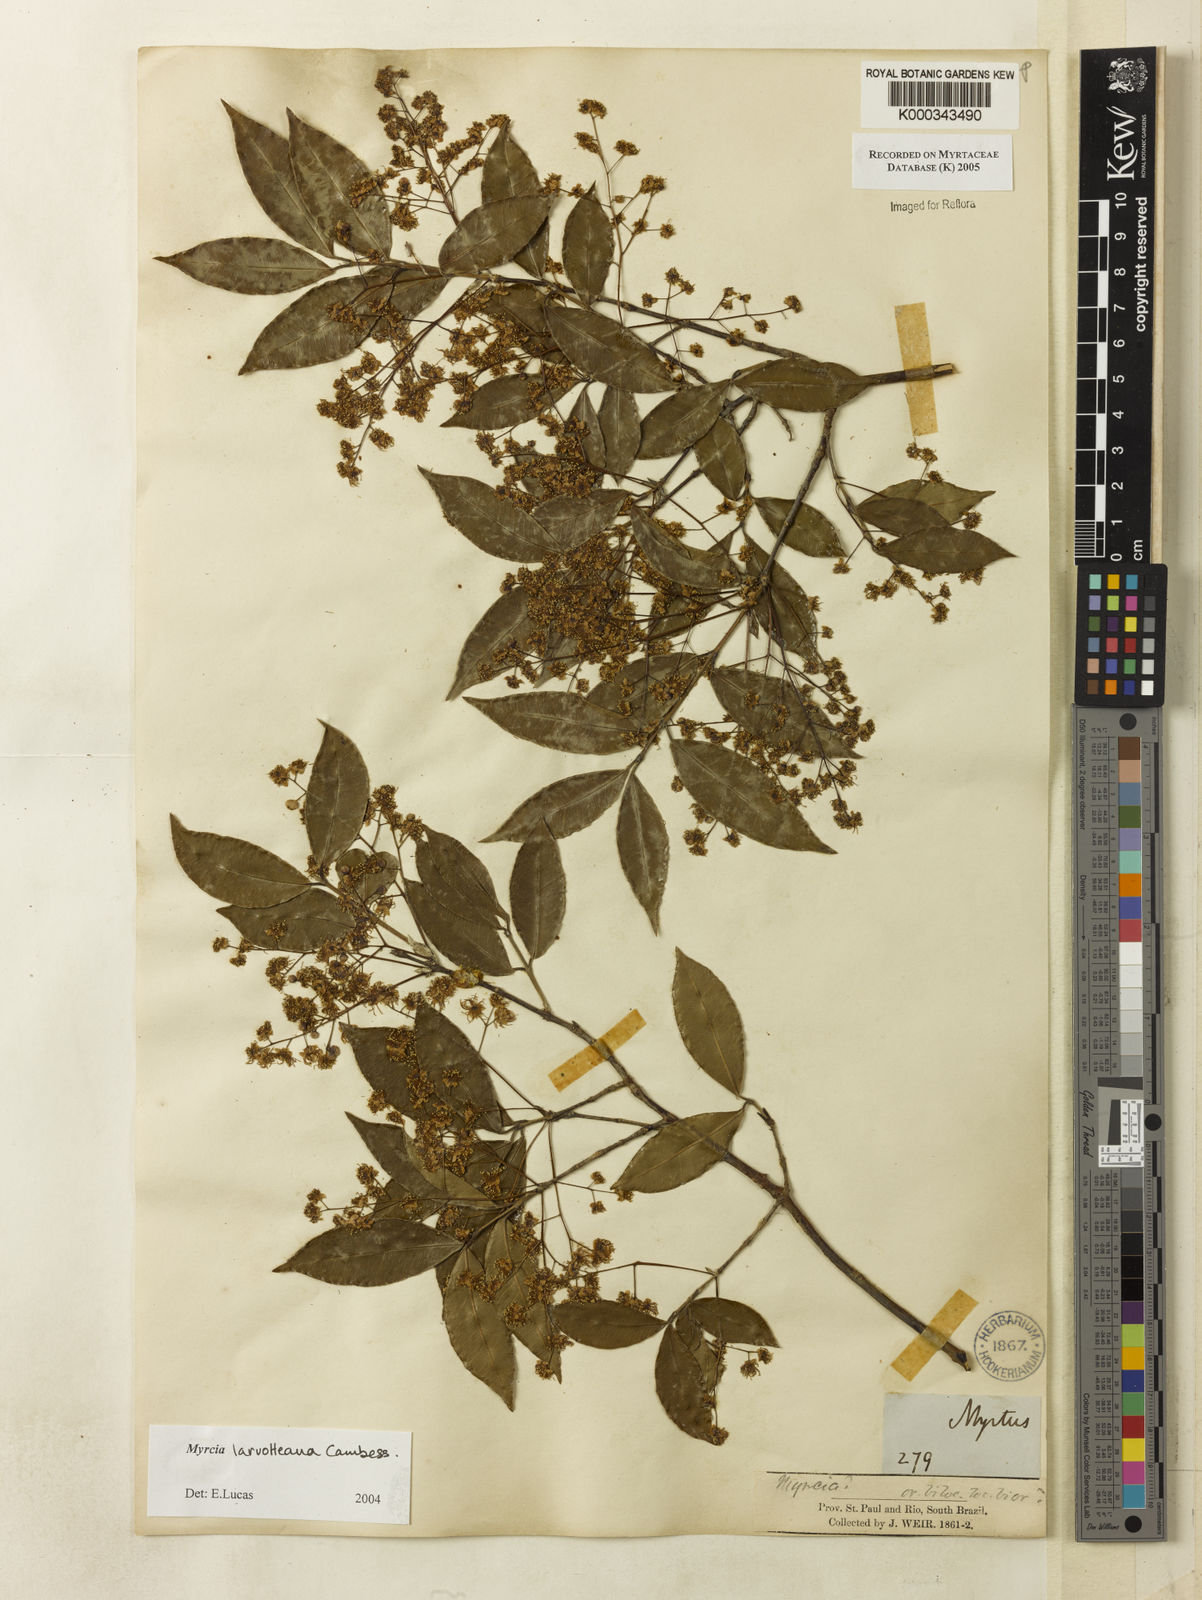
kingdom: Plantae
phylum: Tracheophyta
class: Magnoliopsida
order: Myrtales
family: Myrtaceae
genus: Myrcia
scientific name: Myrcia laruotteana
